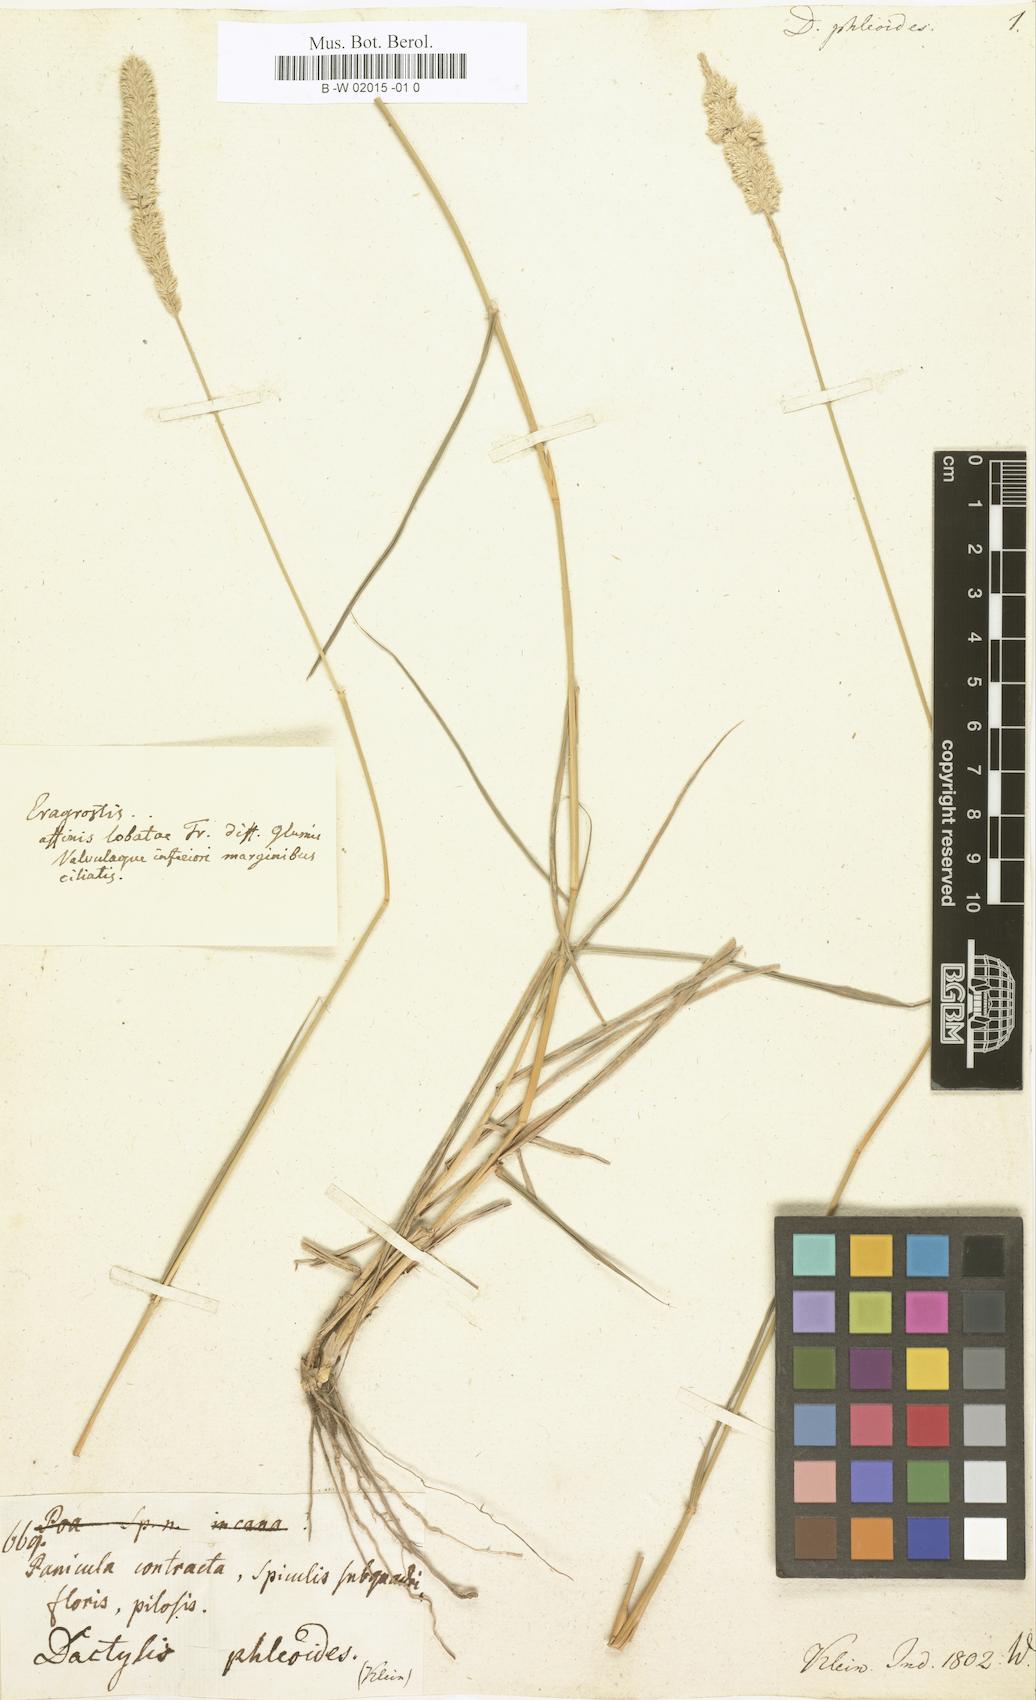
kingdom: Plantae
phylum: Tracheophyta
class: Liliopsida
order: Poales
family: Poaceae
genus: Eragrostis
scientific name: Eragrostis deccanensis
